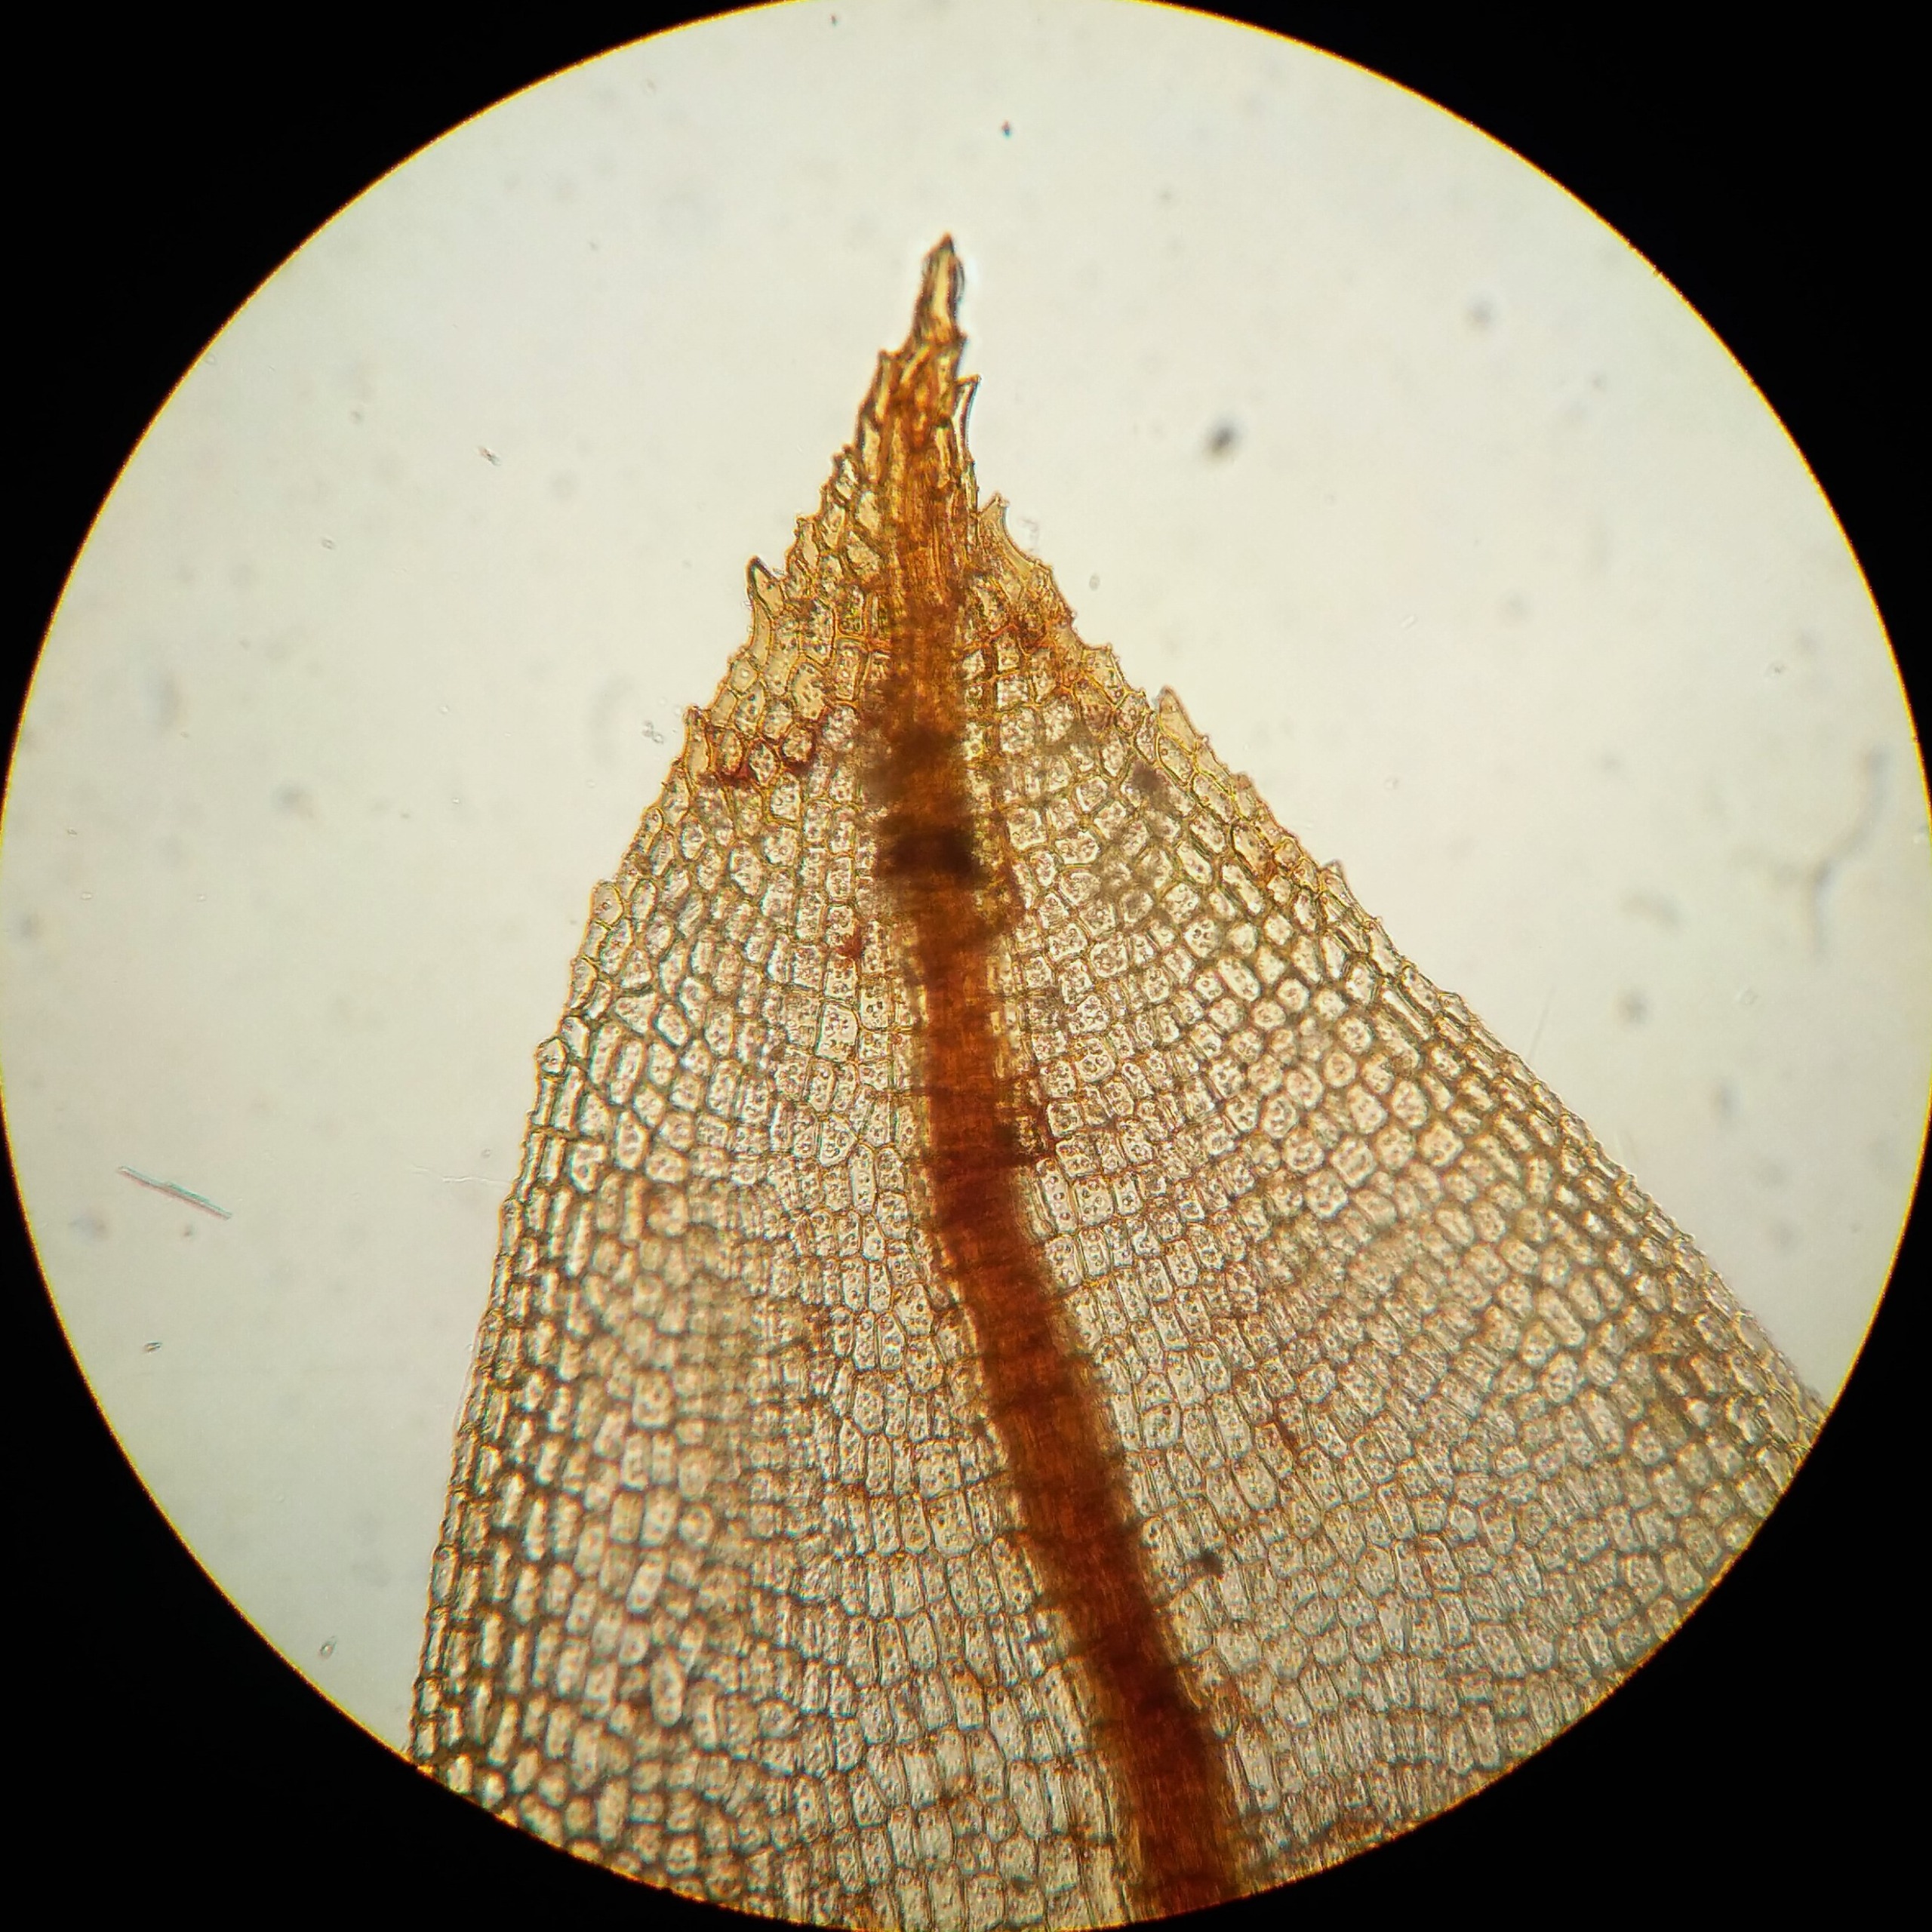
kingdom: Plantae
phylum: Bryophyta
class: Bryopsida
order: Pottiales
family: Pottiaceae
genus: Hennediella
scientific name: Hennediella heimii
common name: Salt-bægermos
